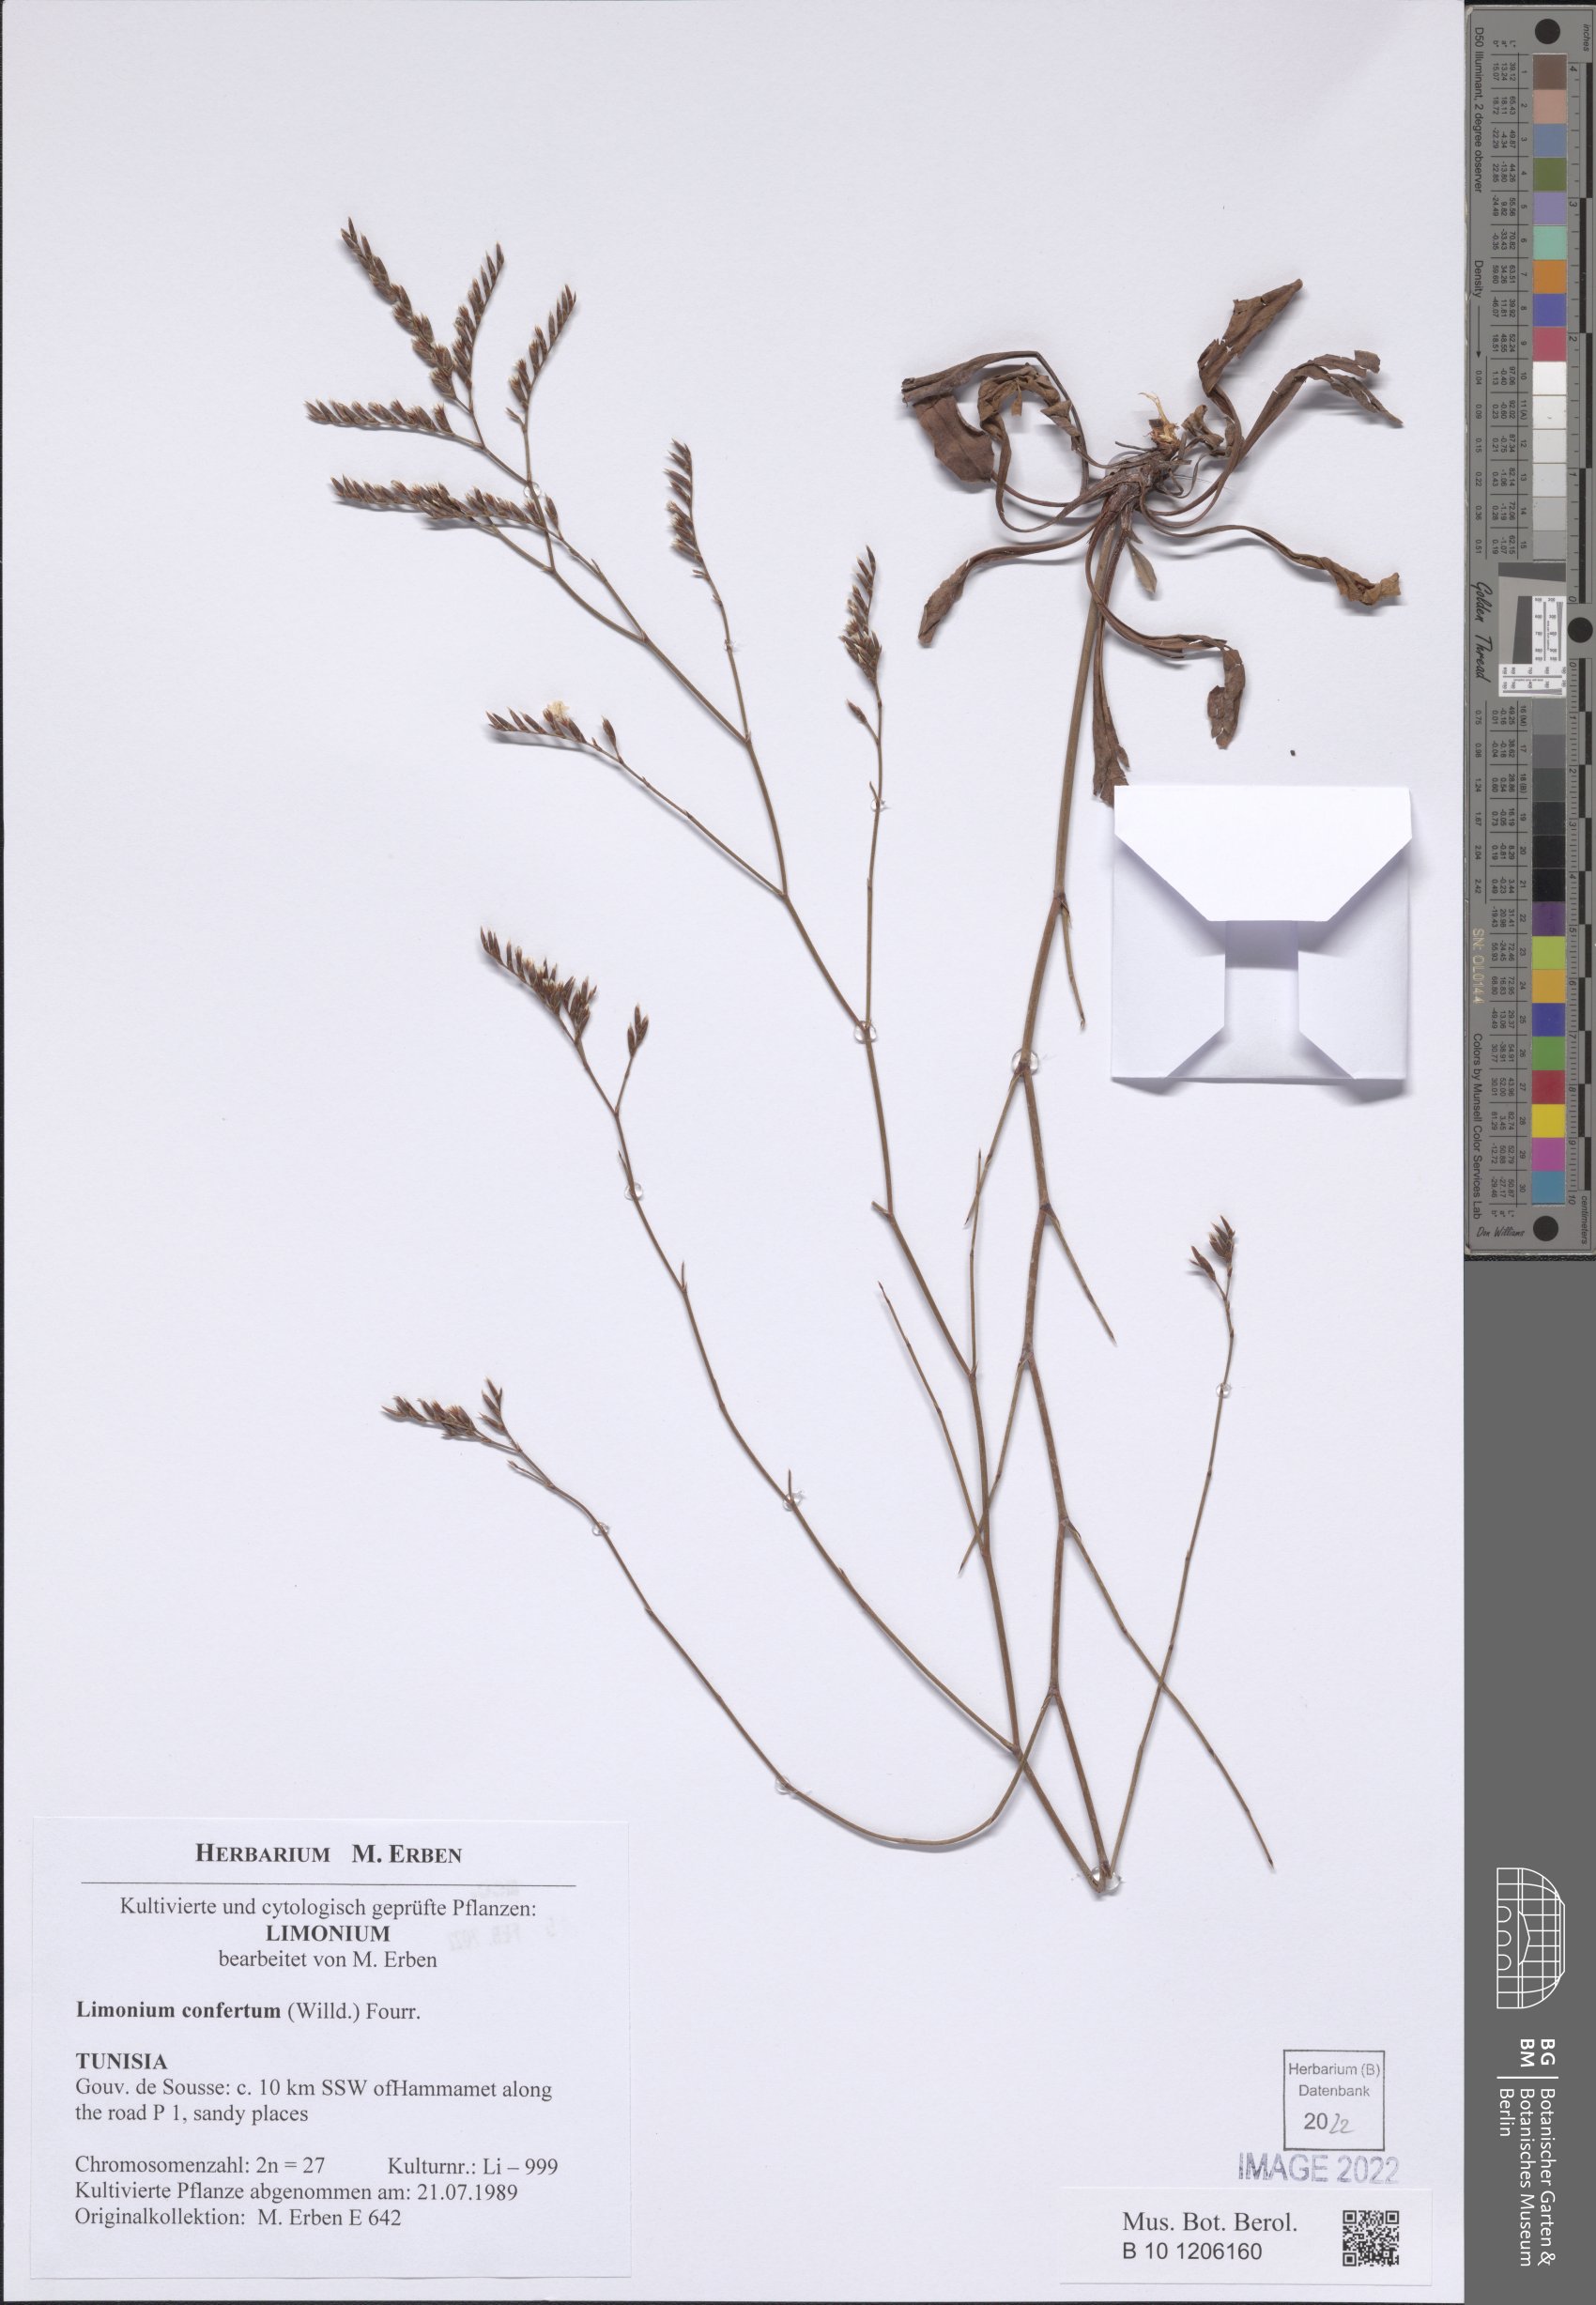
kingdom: Plantae
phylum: Tracheophyta
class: Magnoliopsida
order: Caryophyllales
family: Plumbaginaceae
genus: Limonium
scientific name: Limonium confertum
